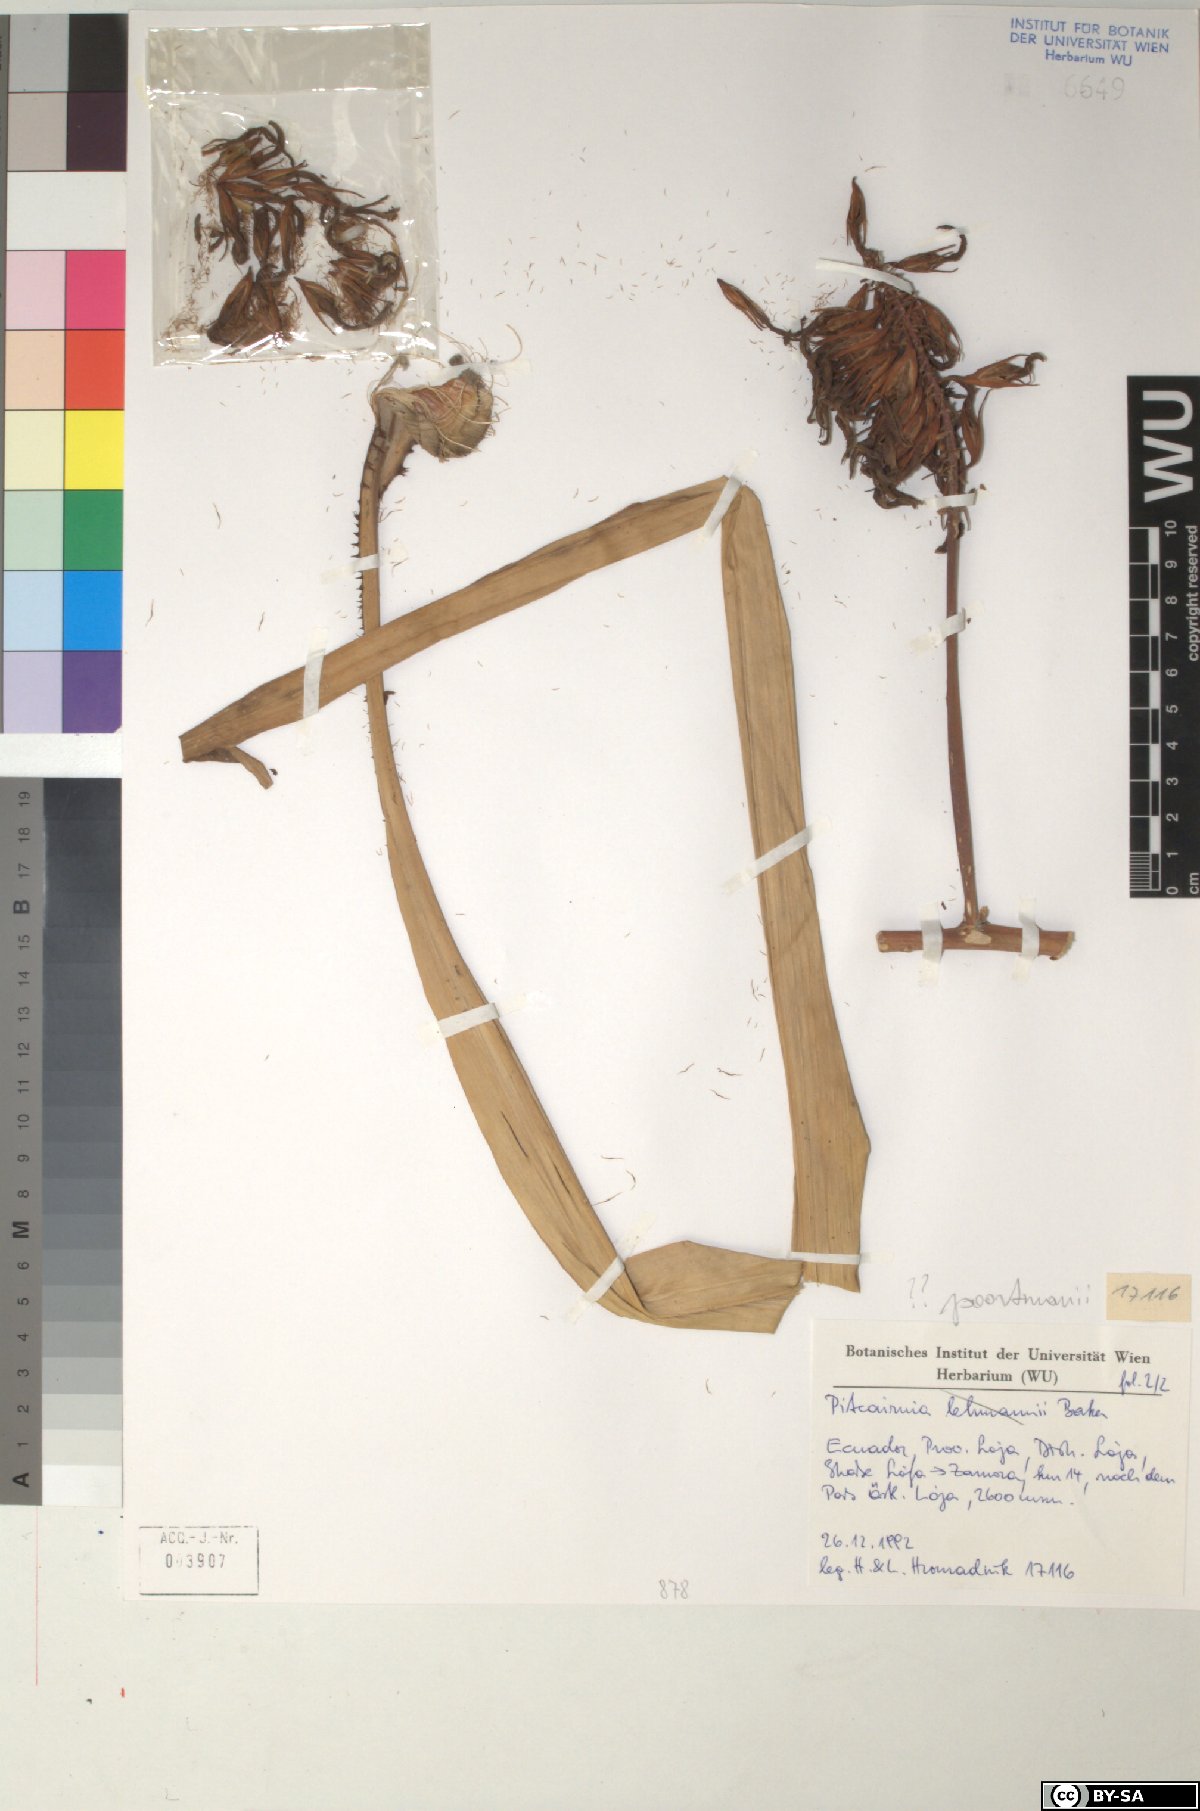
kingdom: Plantae
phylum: Tracheophyta
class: Liliopsida
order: Poales
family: Bromeliaceae
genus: Pitcairnia
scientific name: Pitcairnia poortmanii
